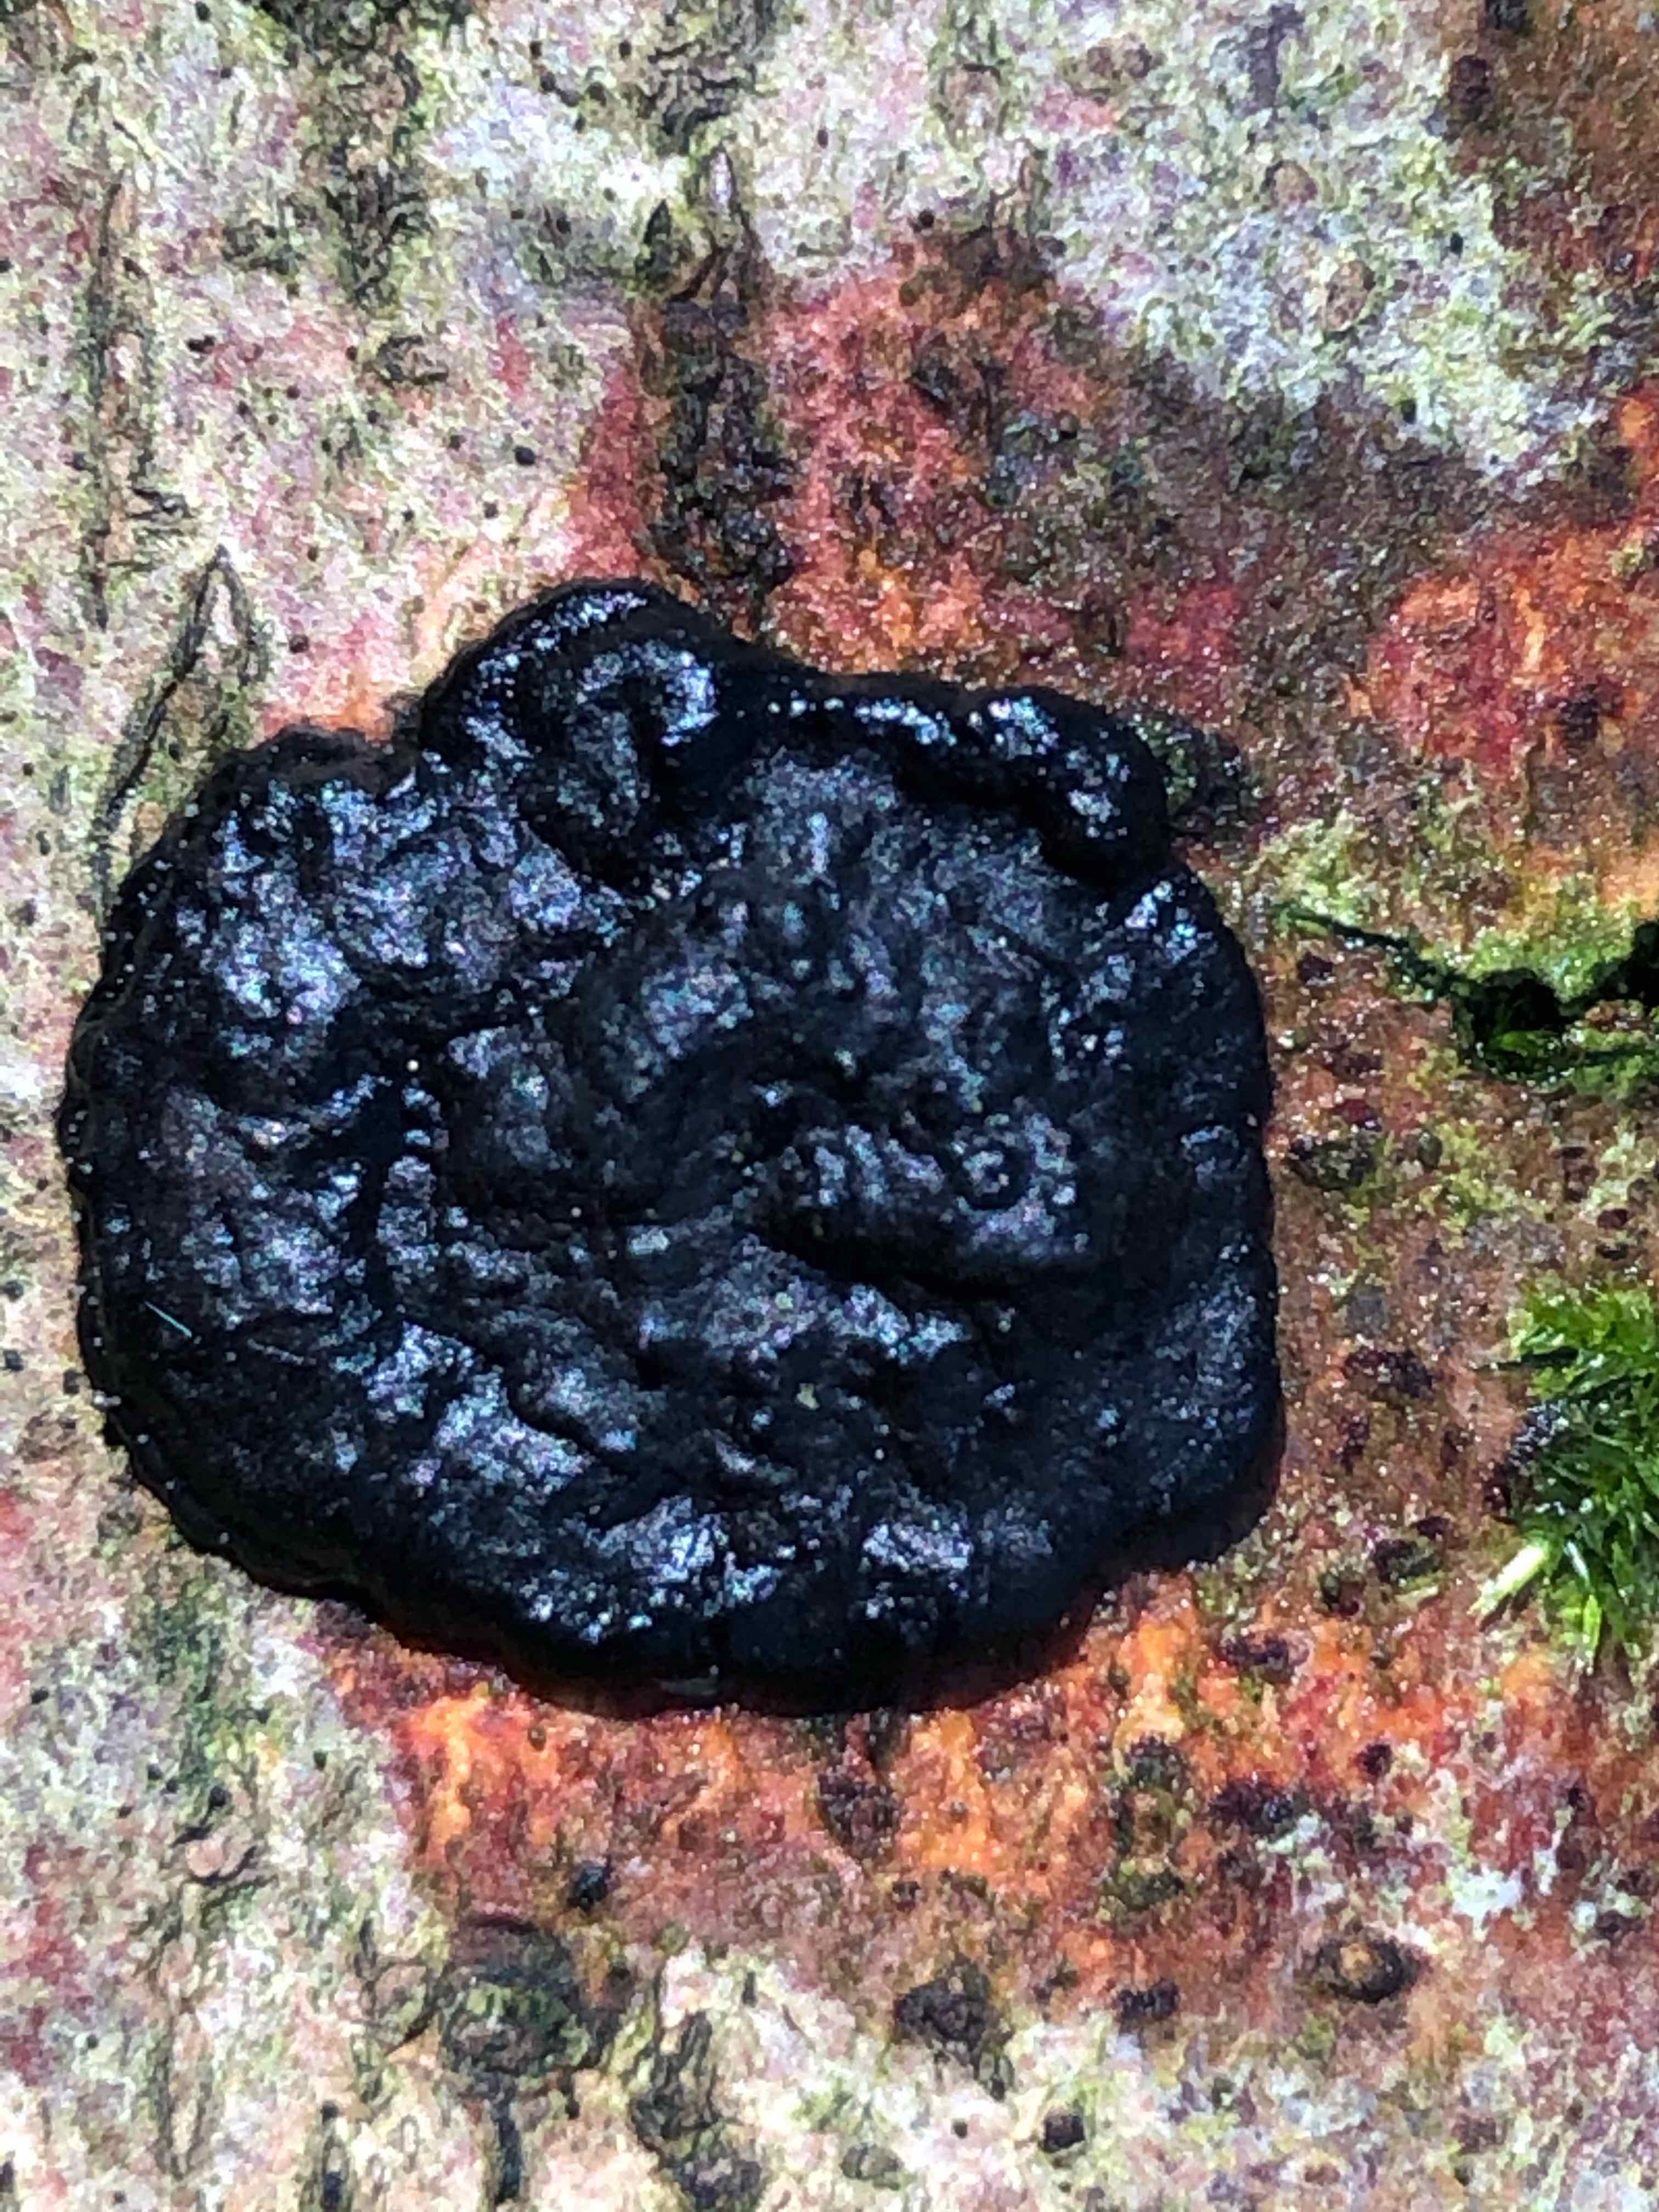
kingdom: Fungi
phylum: Basidiomycota
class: Agaricomycetes
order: Auriculariales
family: Auriculariaceae
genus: Exidia
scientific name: Exidia pithya
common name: gran-bævretop
